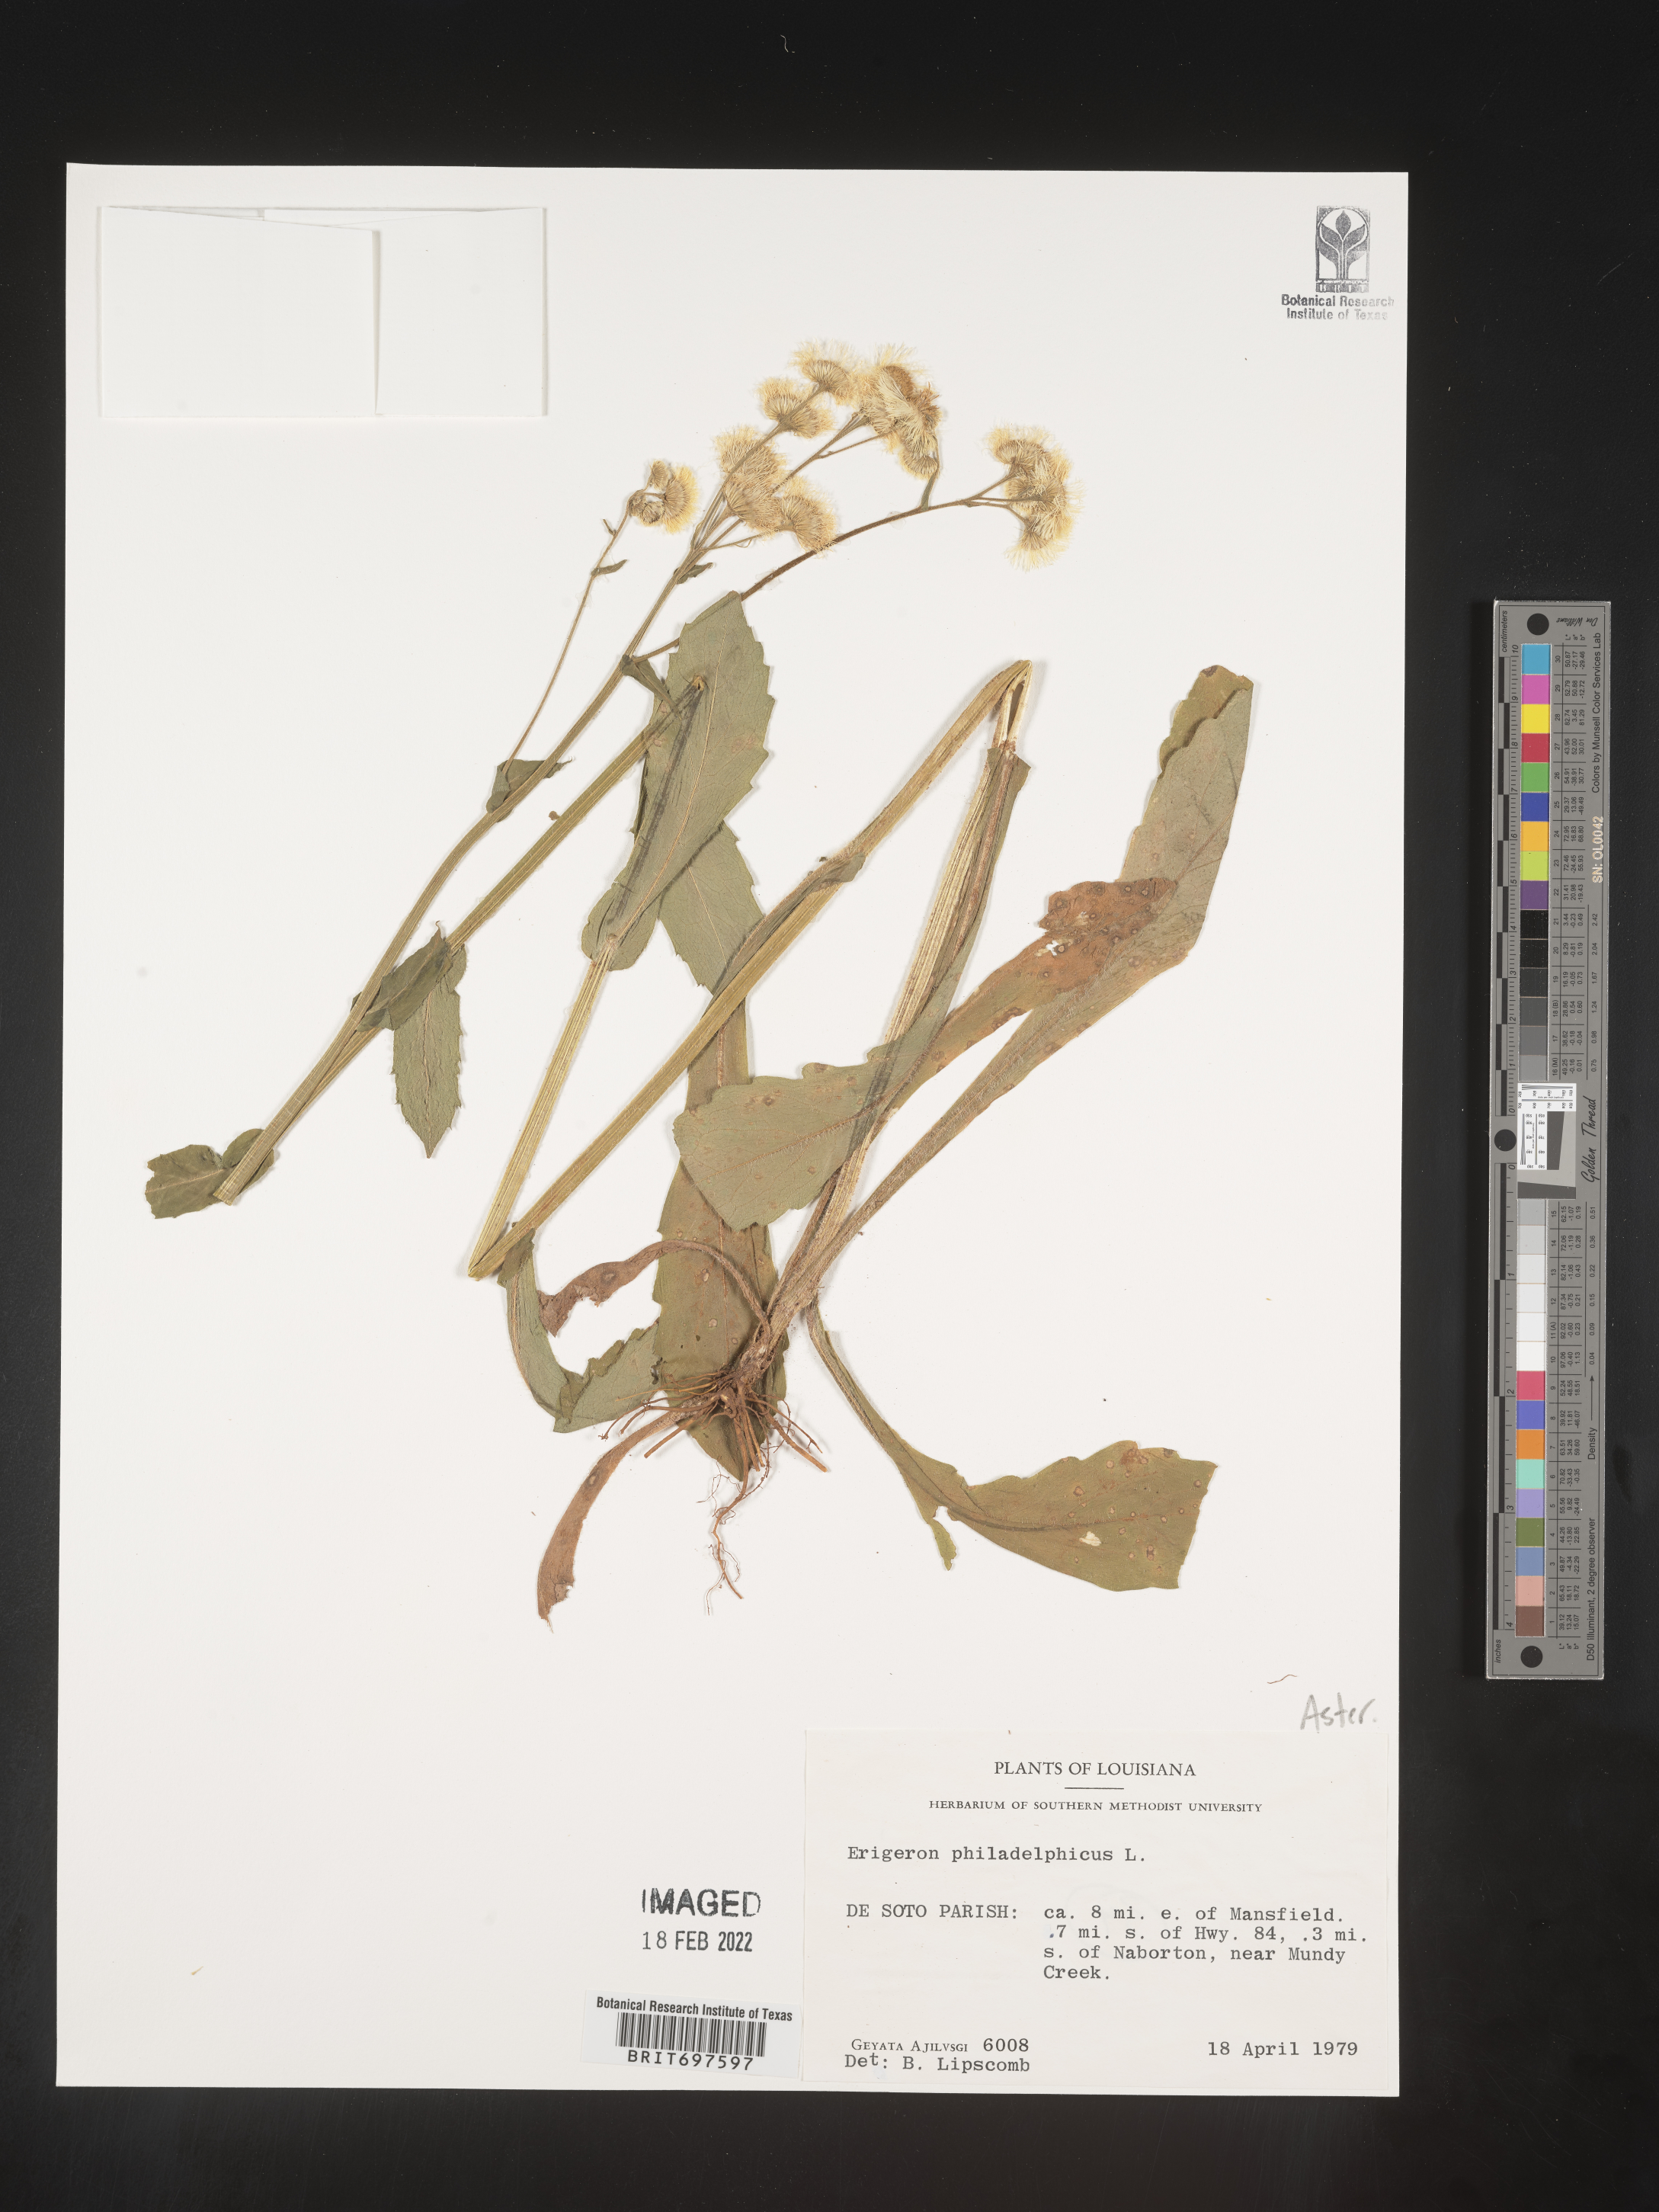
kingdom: Plantae
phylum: Tracheophyta
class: Magnoliopsida
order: Asterales
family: Asteraceae
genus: Erigeron
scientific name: Erigeron philadelphicus
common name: Robin's-plantain
